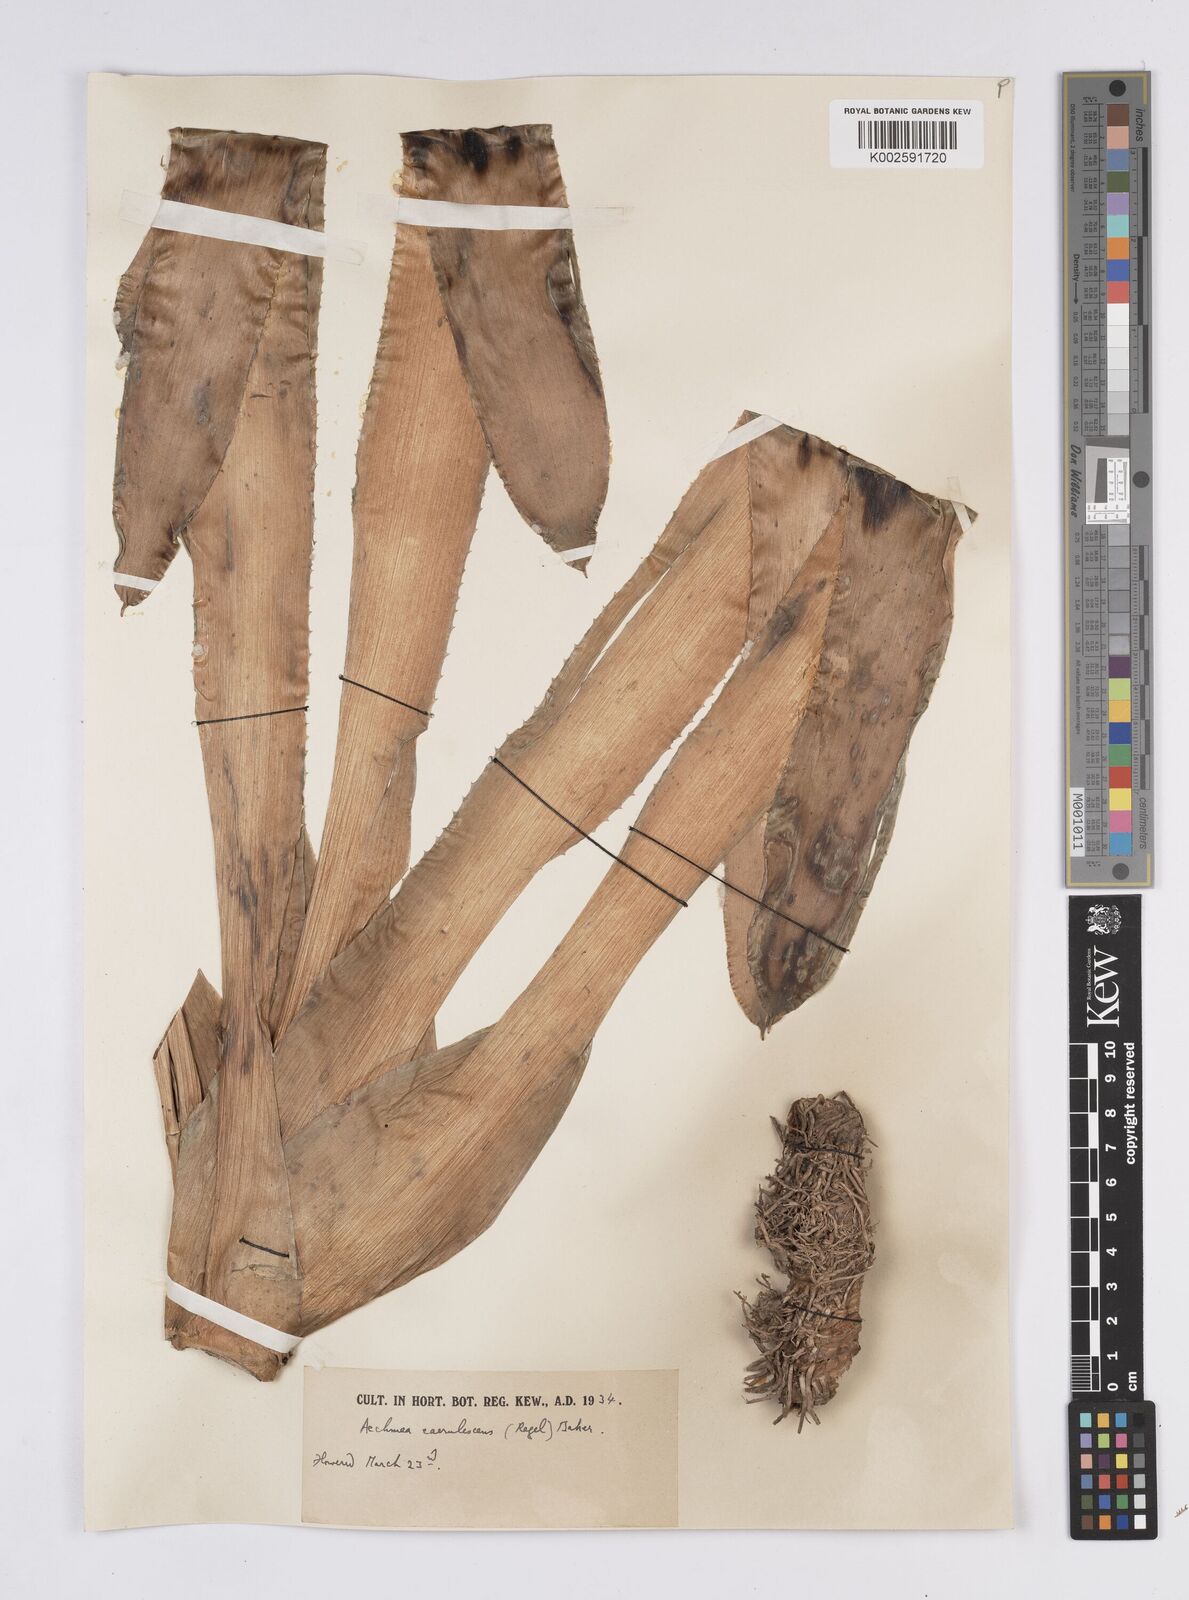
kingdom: Plantae
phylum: Tracheophyta
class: Liliopsida
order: Poales
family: Bromeliaceae
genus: Aechmea
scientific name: Aechmea lueddemanniana
